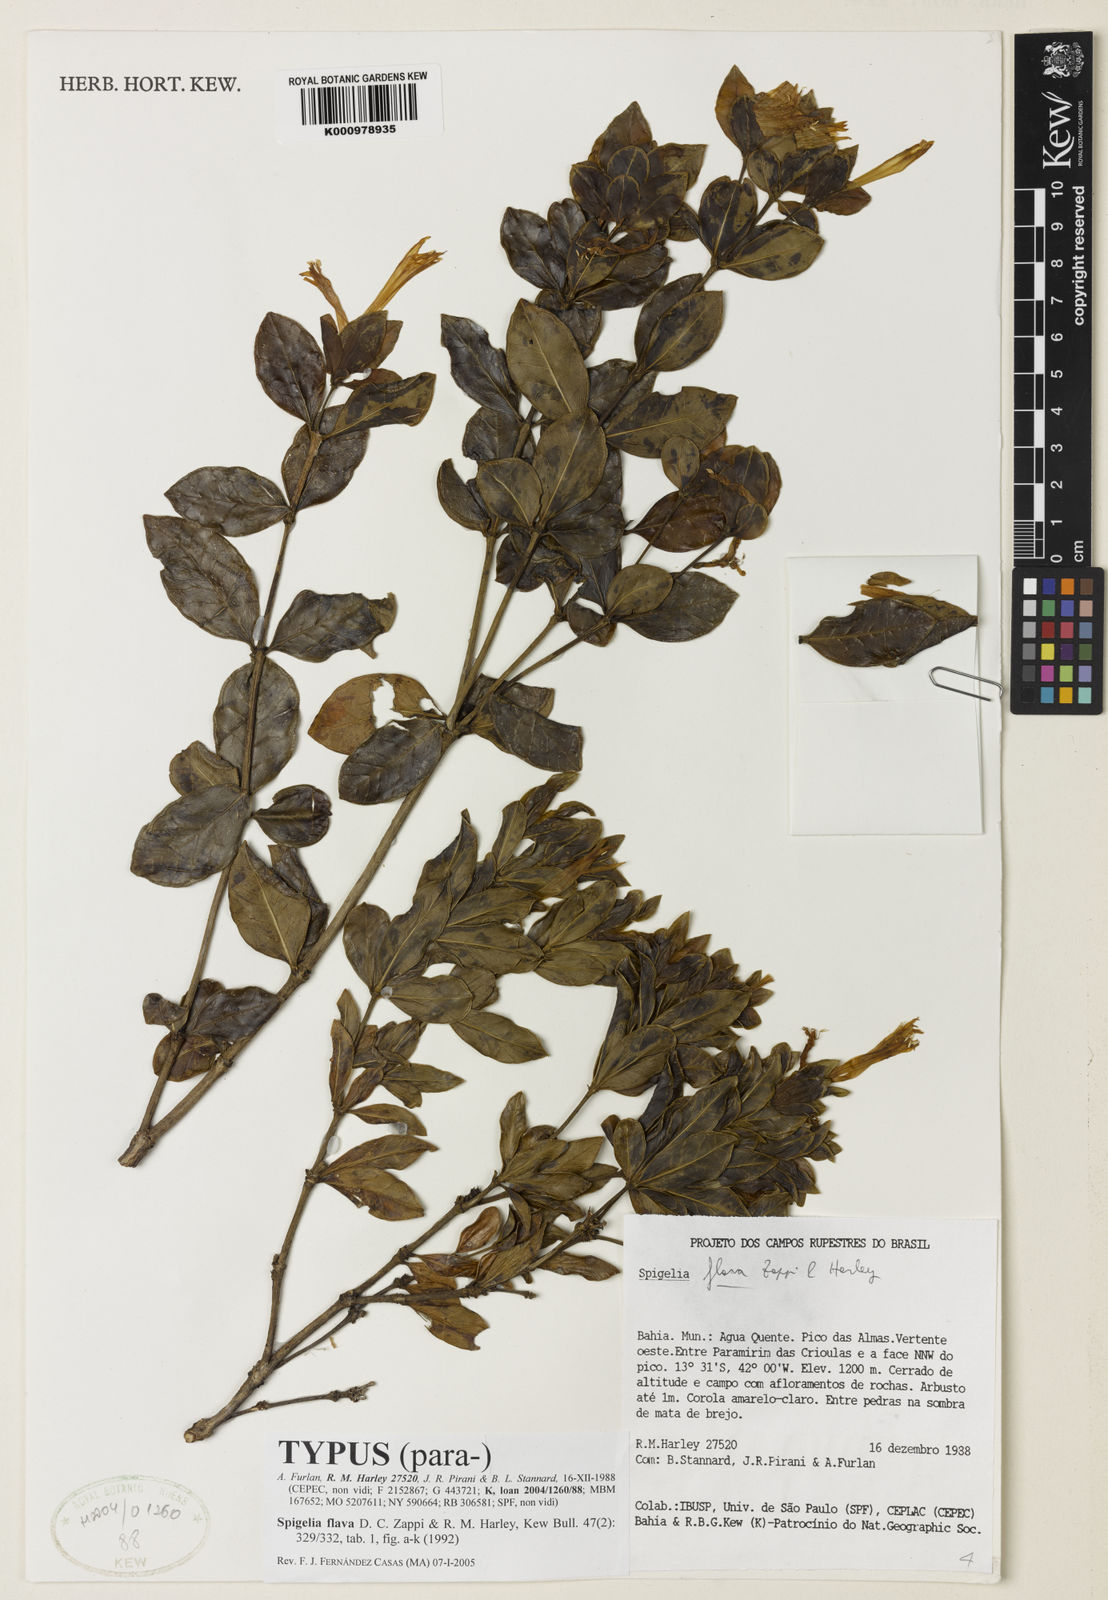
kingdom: Plantae
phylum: Tracheophyta
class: Magnoliopsida
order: Gentianales
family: Loganiaceae
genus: Spigelia
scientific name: Spigelia
